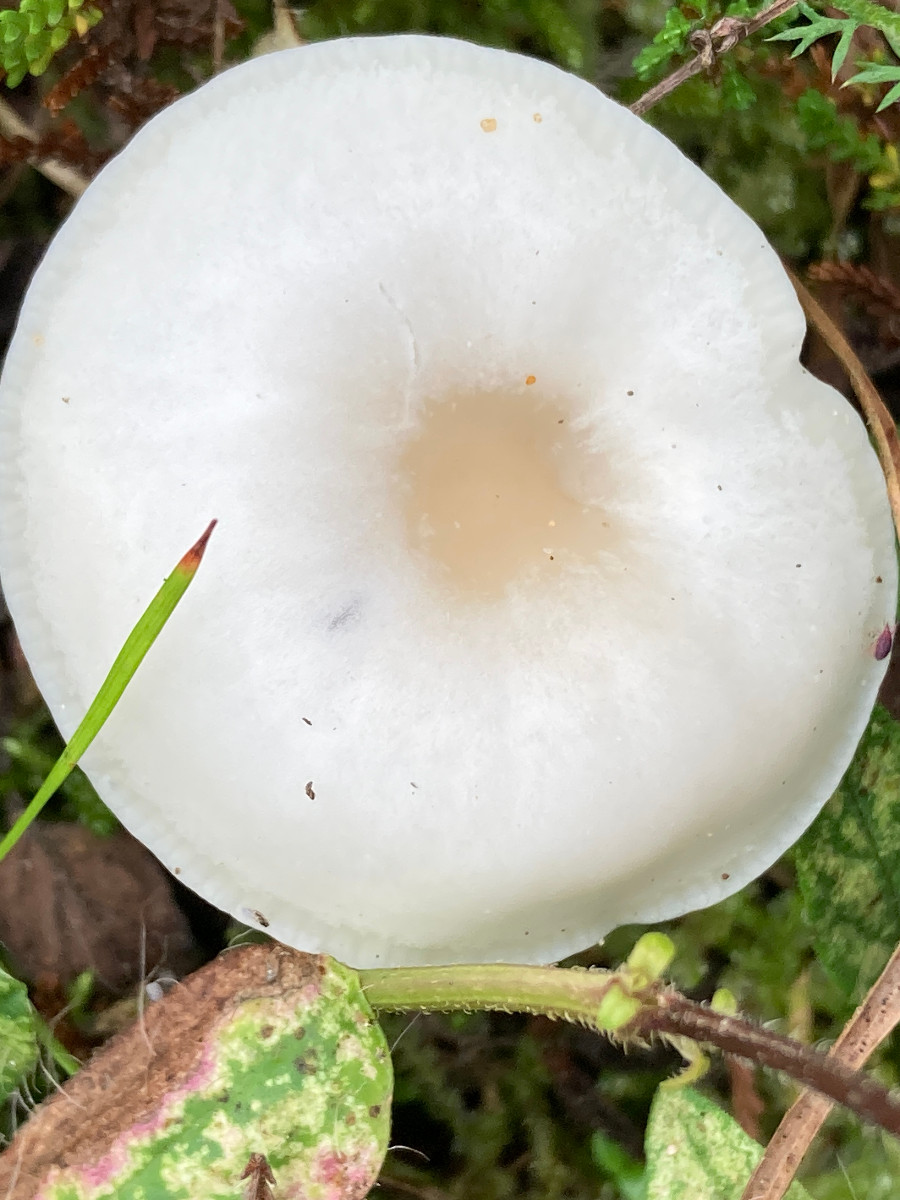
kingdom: Fungi
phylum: Basidiomycota
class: Agaricomycetes
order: Agaricales
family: Hygrophoraceae
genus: Cuphophyllus
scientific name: Cuphophyllus virgineus
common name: snehvid vokshat
